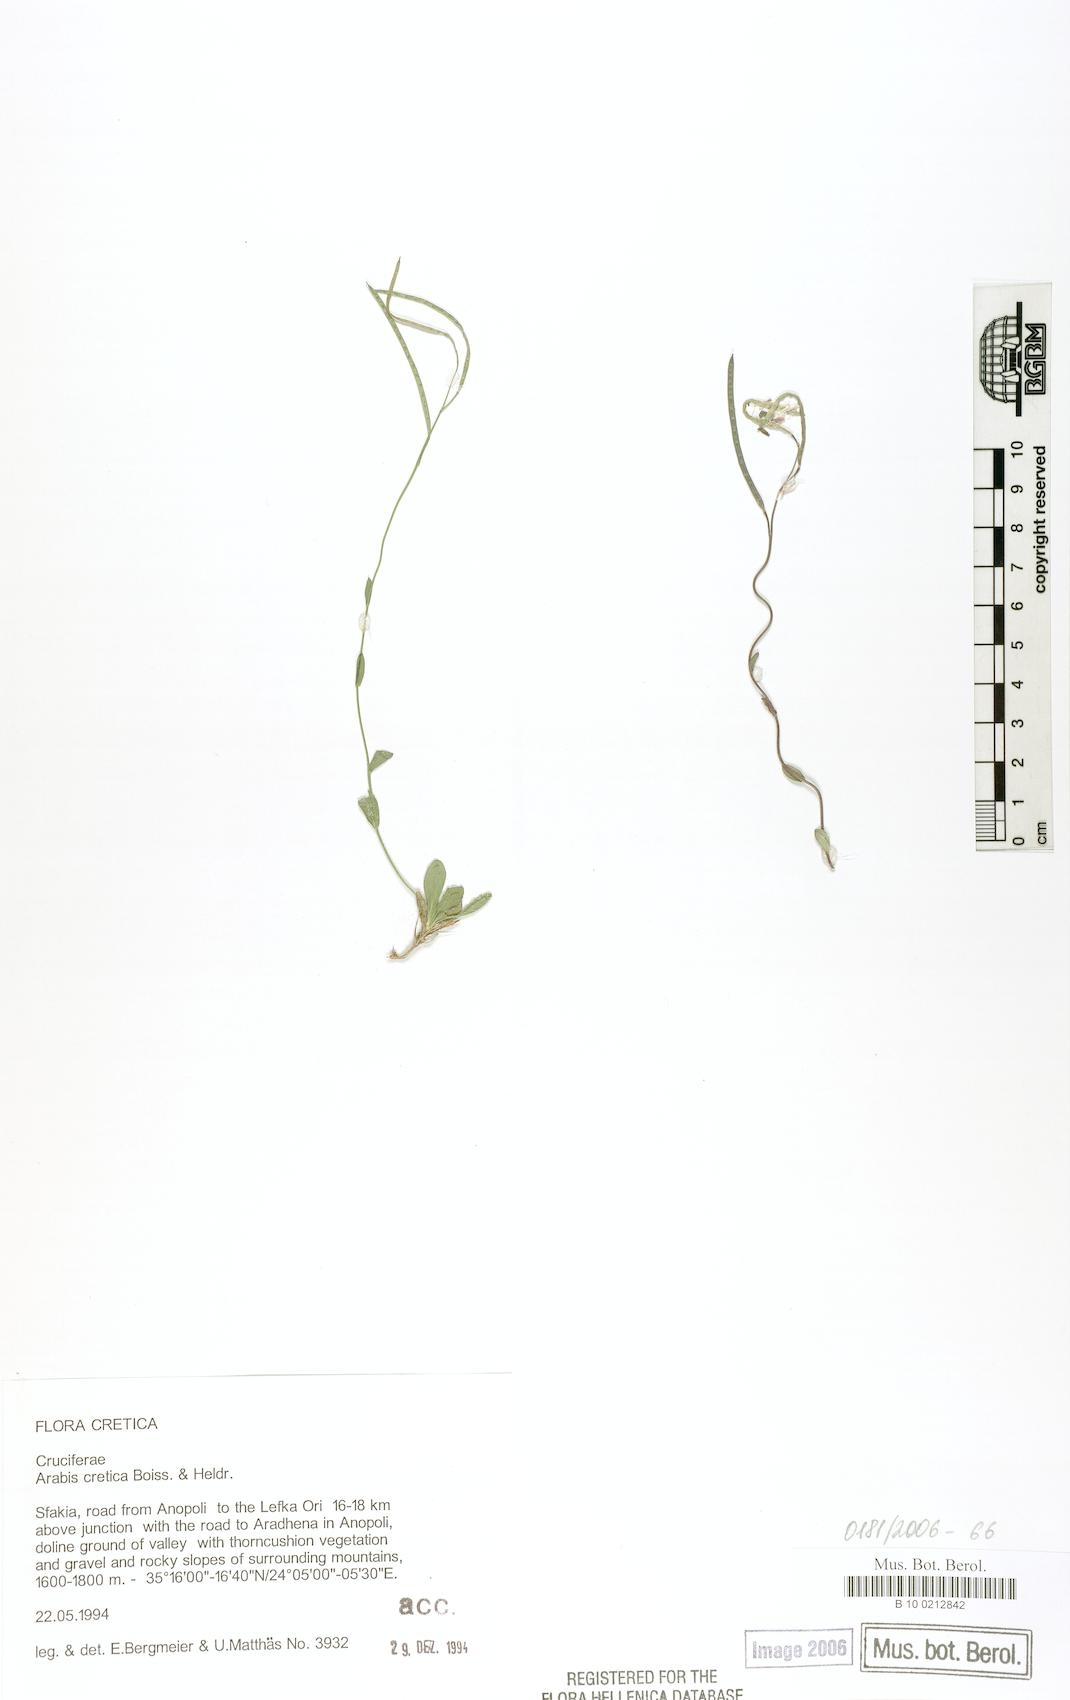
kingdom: Plantae
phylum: Tracheophyta
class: Magnoliopsida
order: Brassicales
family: Brassicaceae
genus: Arabis
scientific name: Arabis cretica
